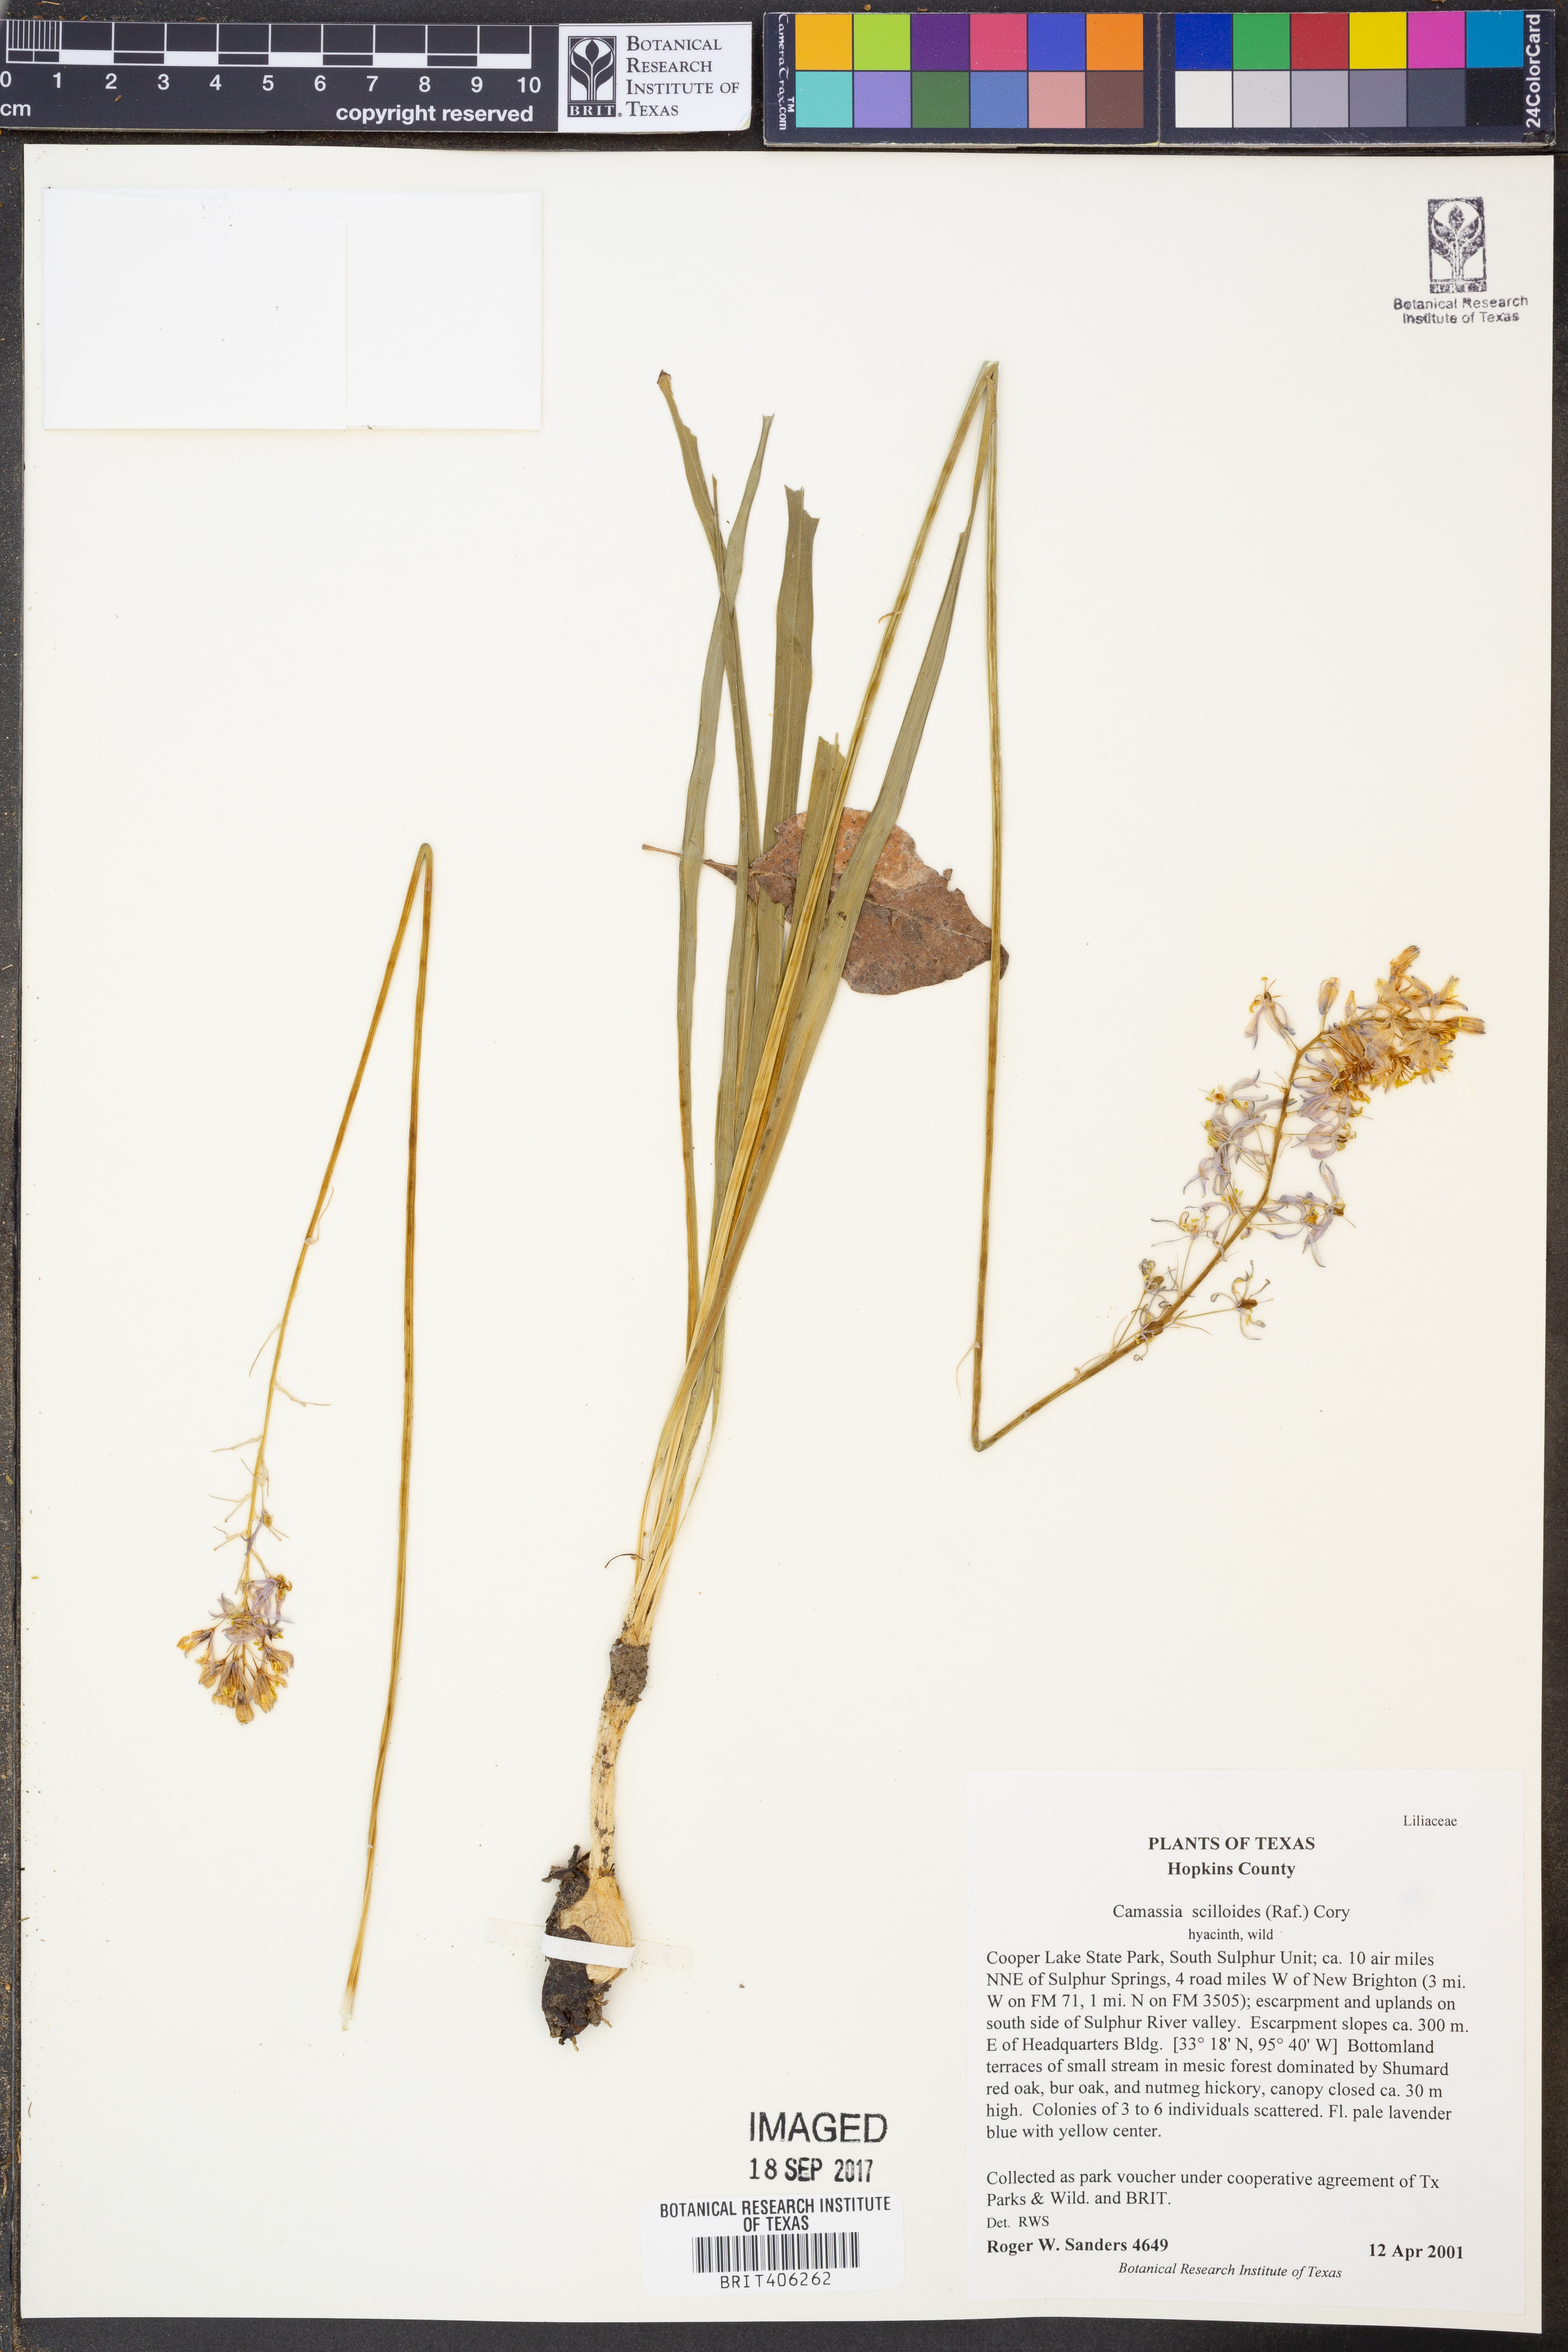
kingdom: Plantae
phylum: Tracheophyta
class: Liliopsida
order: Asparagales
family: Asparagaceae
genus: Camassia
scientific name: Camassia scilloides
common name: Wild hyacinth
